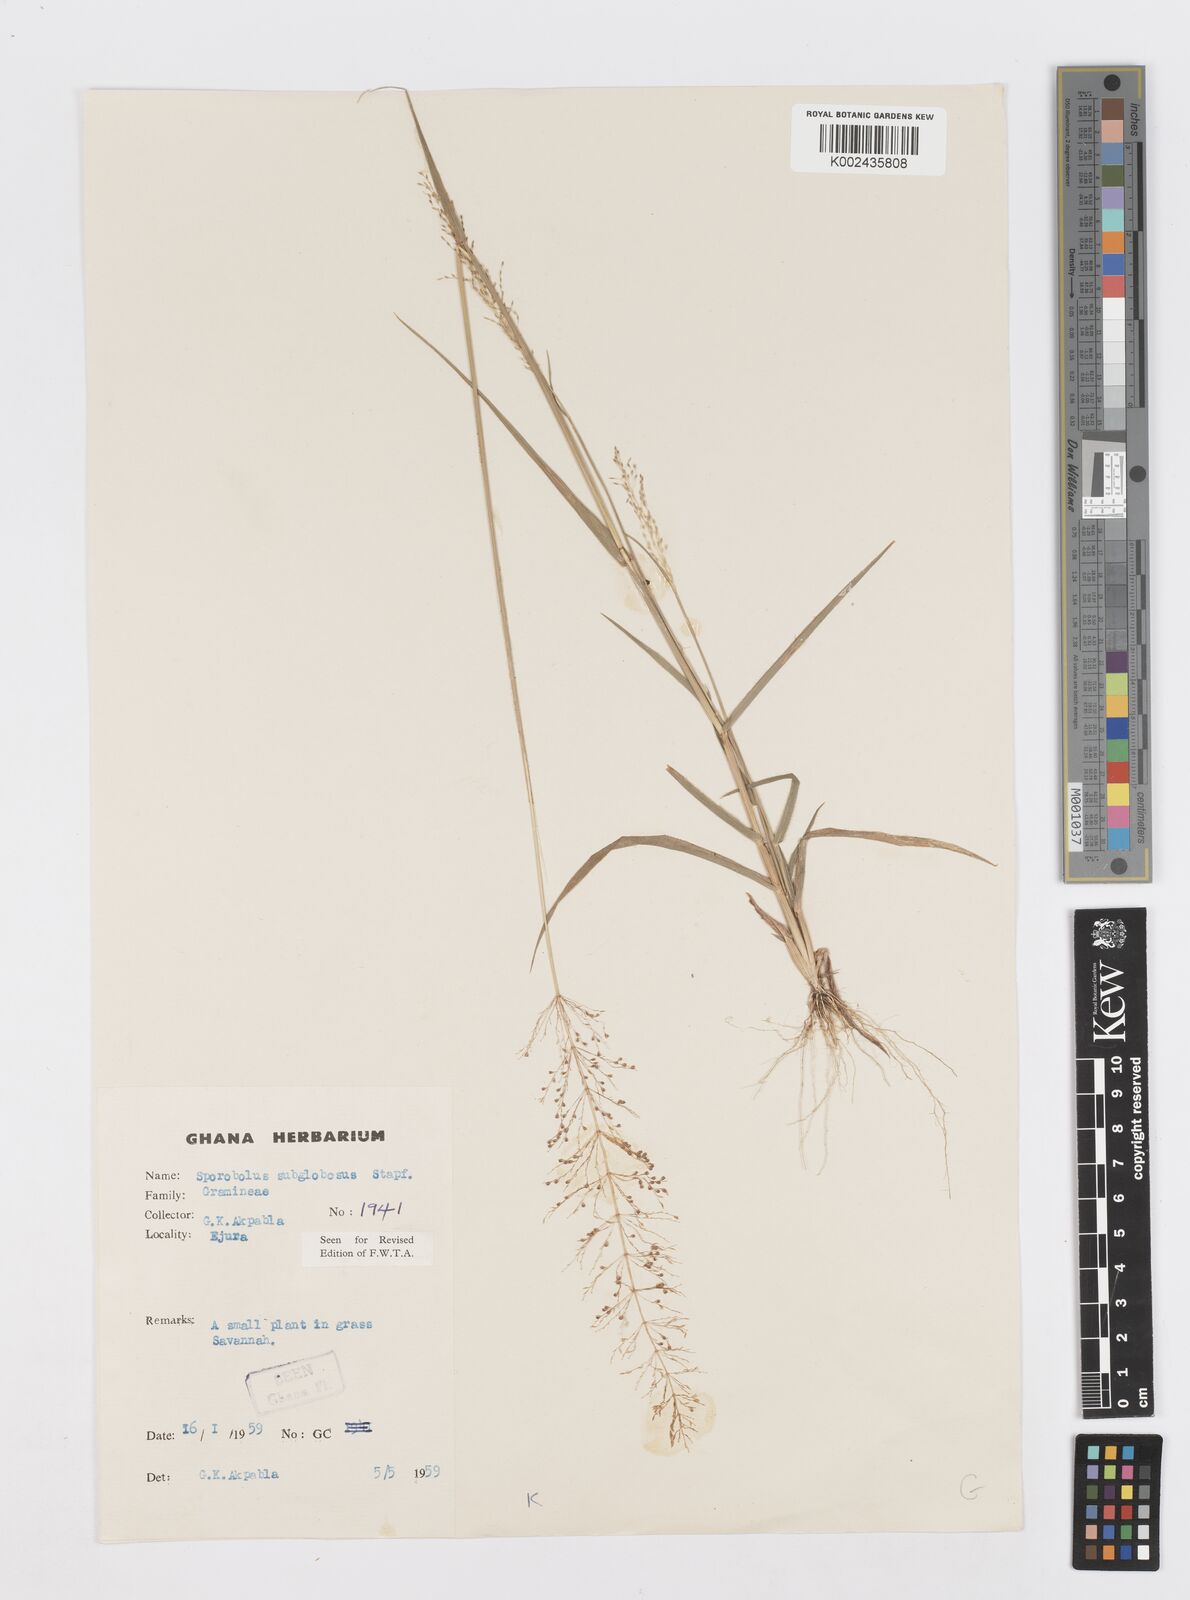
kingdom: Plantae
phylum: Tracheophyta
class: Liliopsida
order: Poales
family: Poaceae
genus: Sporobolus
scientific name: Sporobolus subglobosus
